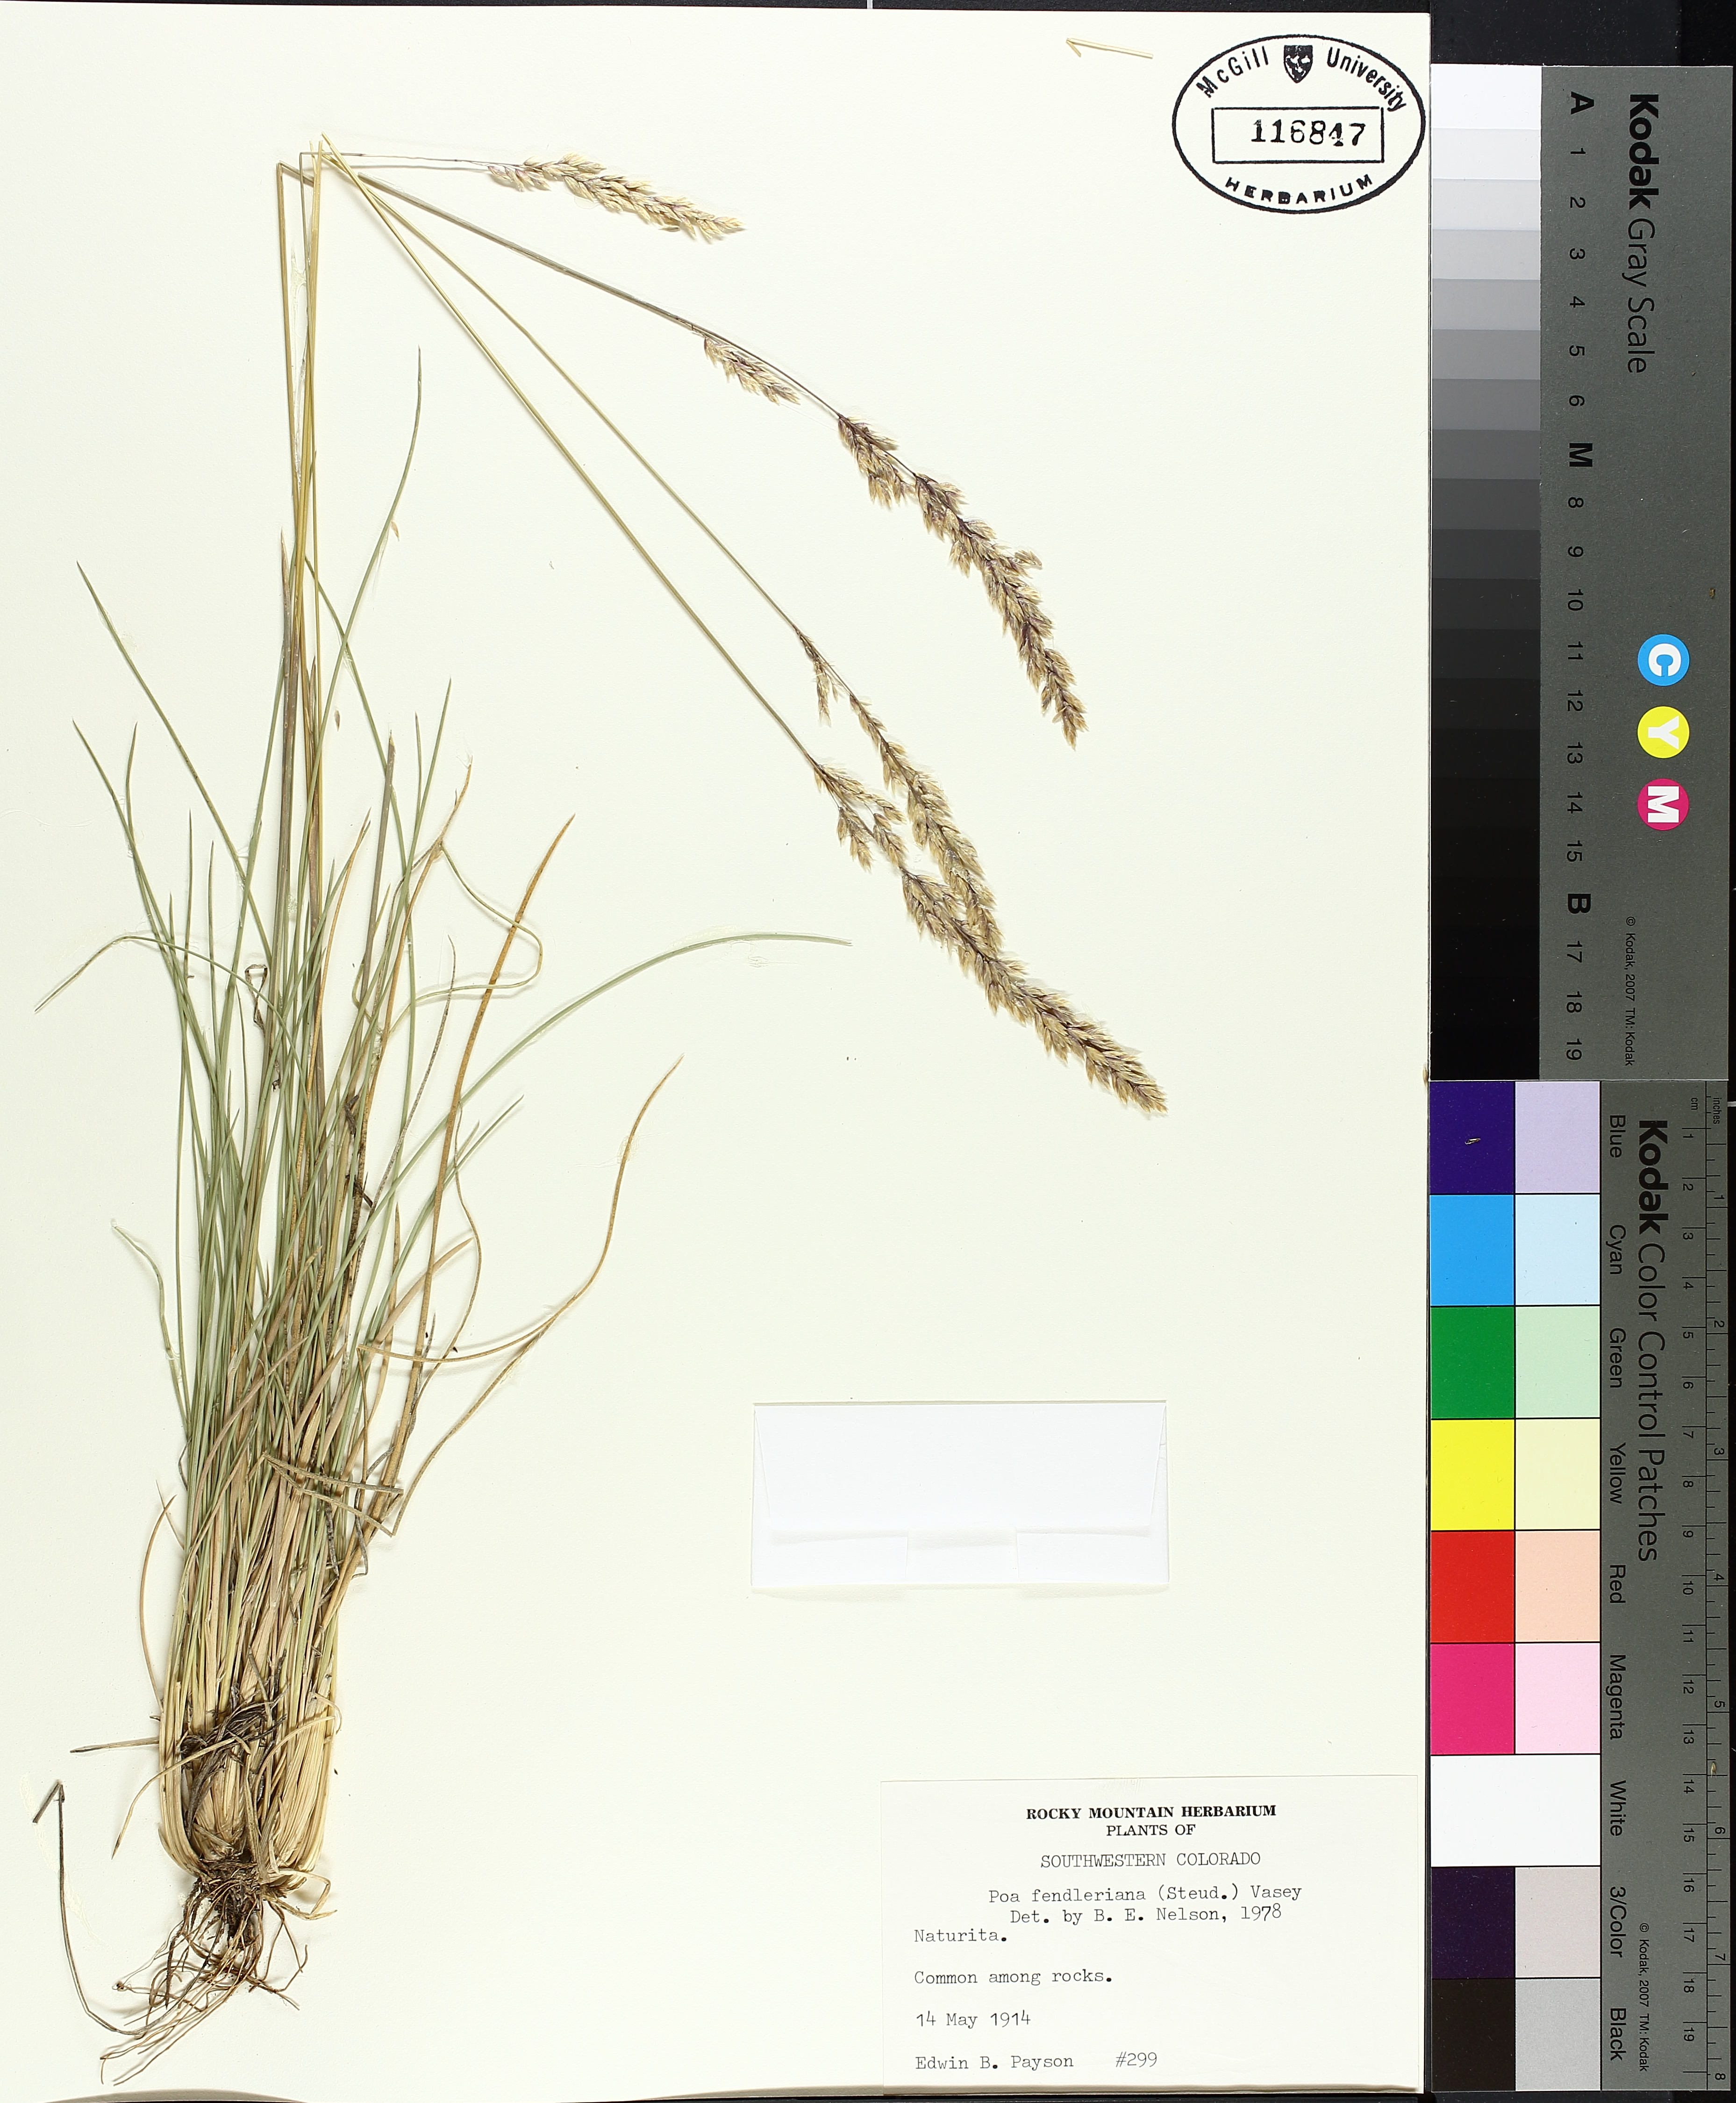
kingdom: Plantae
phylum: Tracheophyta
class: Magnoliopsida
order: Malpighiales
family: Hypericaceae
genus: Hypericum
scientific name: Hypericum formosum
